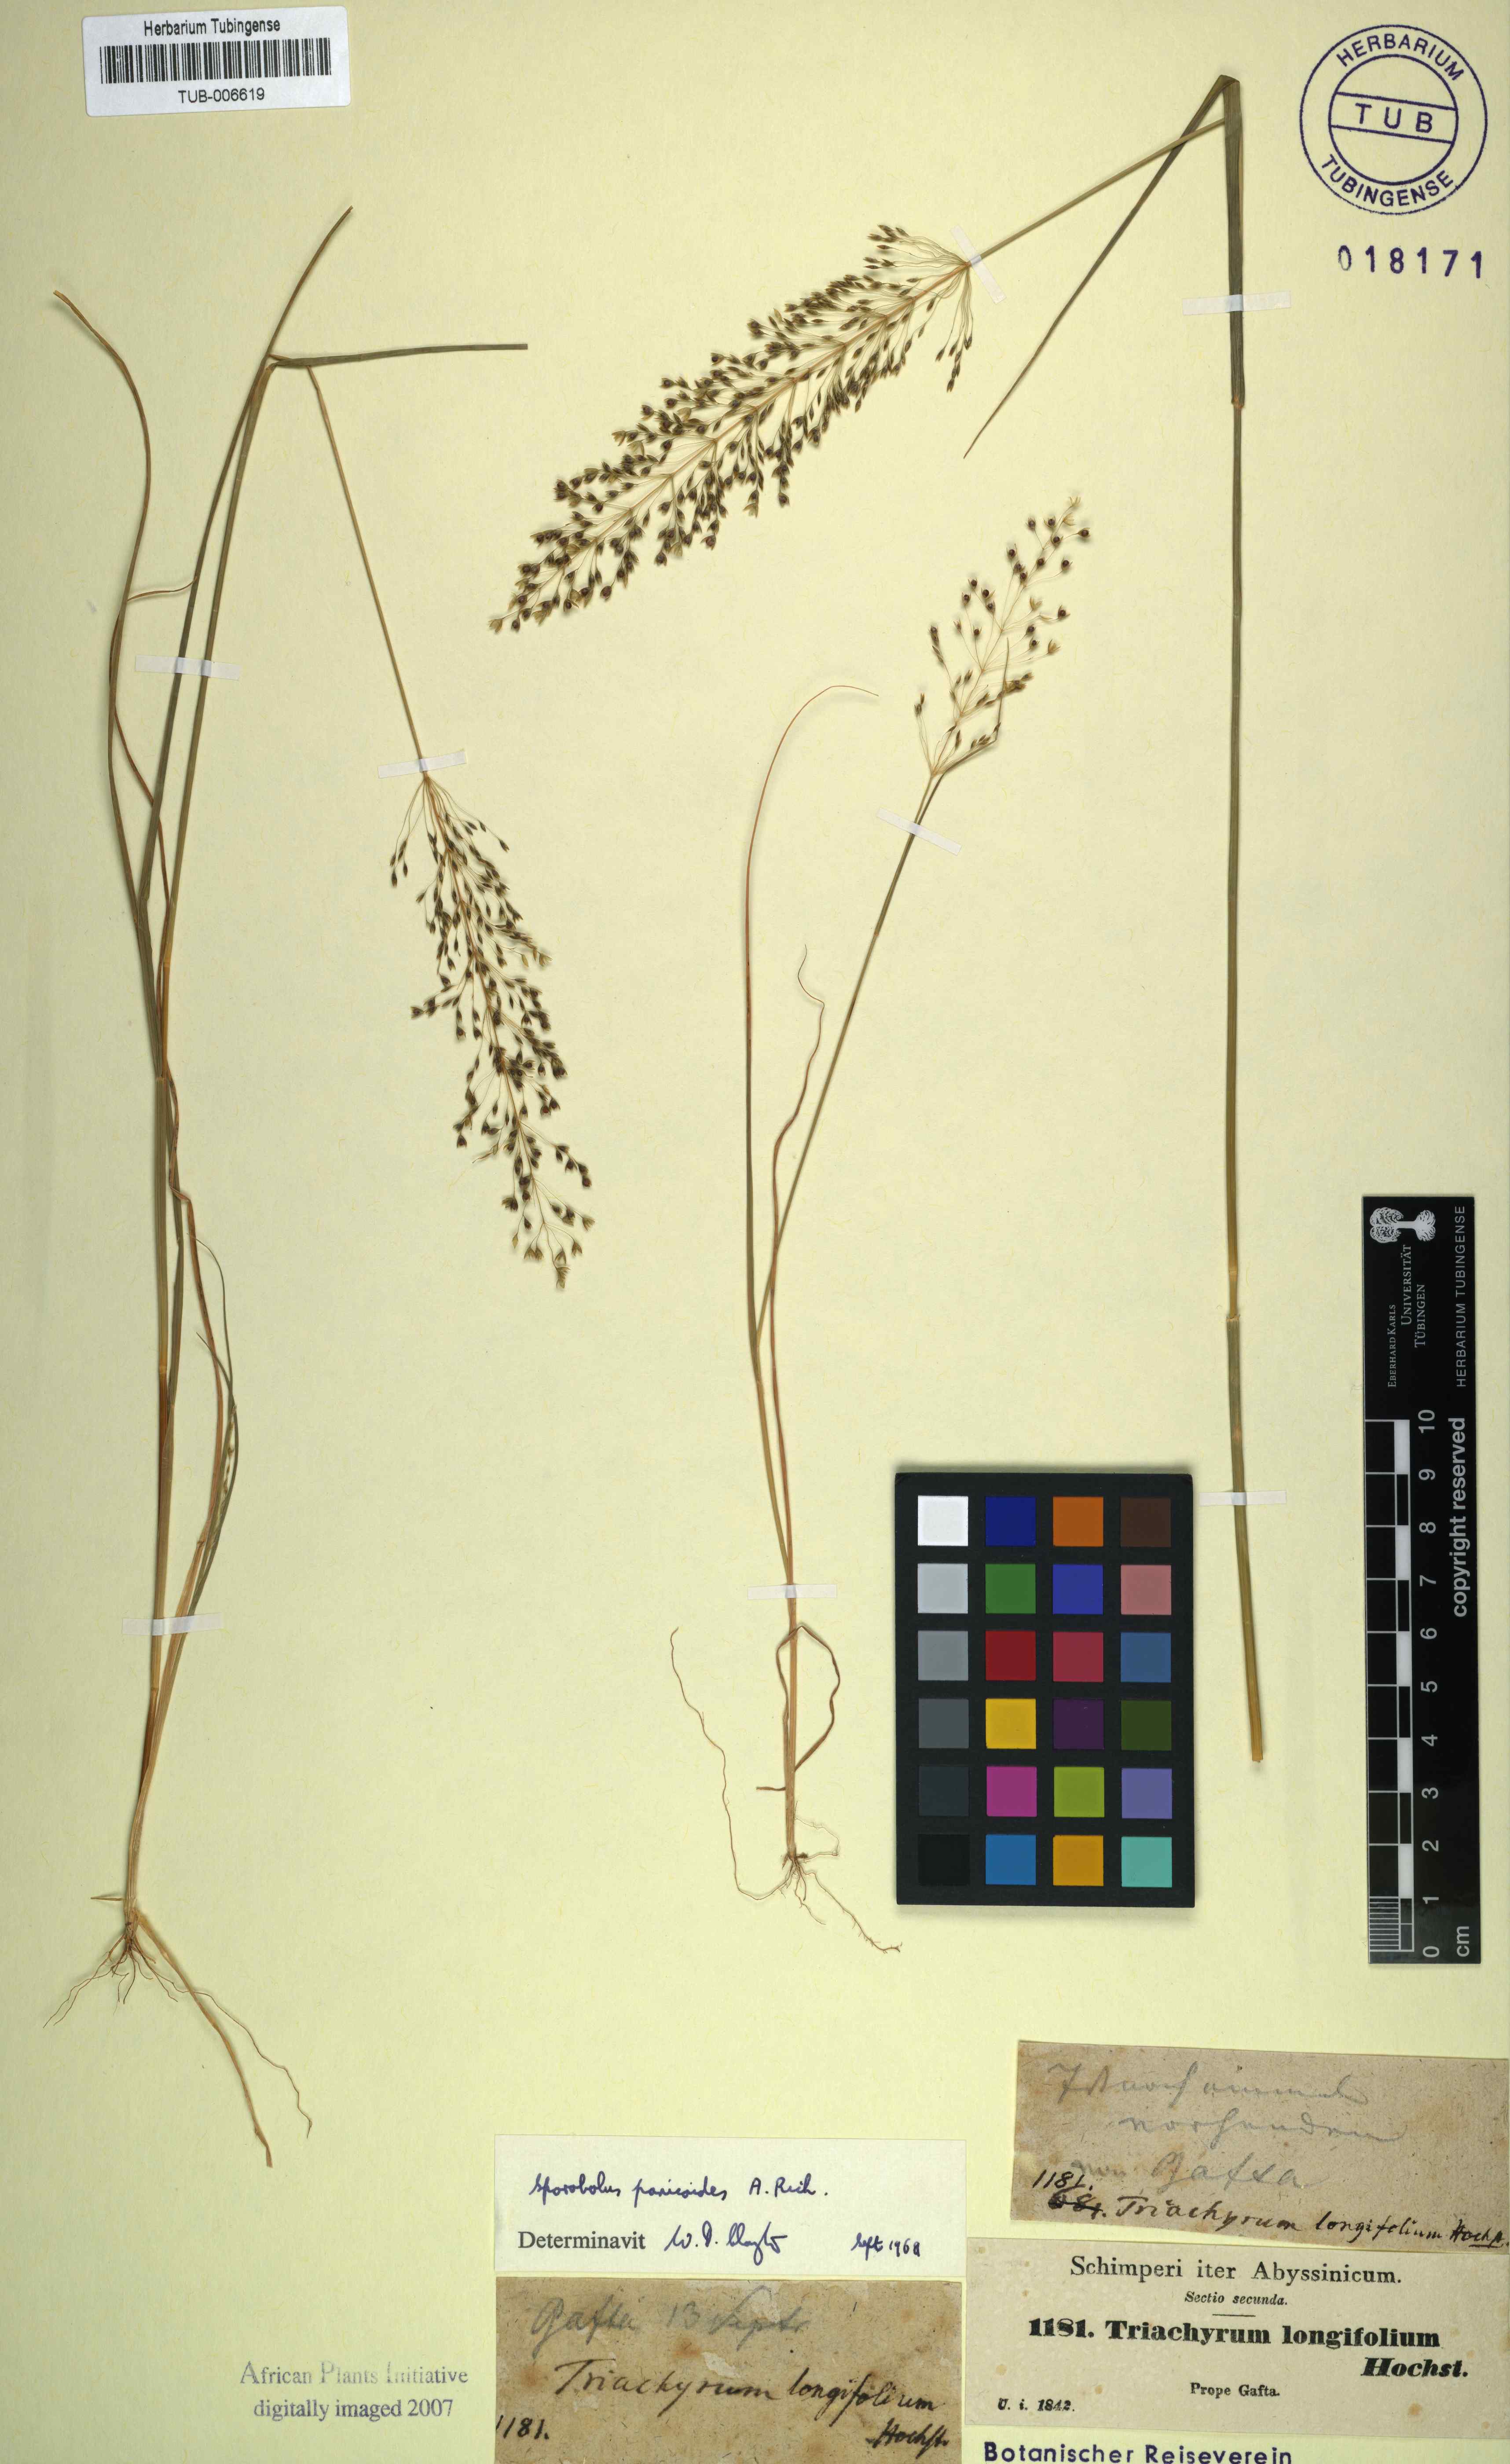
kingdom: Plantae
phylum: Tracheophyta
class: Liliopsida
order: Poales
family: Poaceae
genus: Sporobolus
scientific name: Sporobolus panicoides
